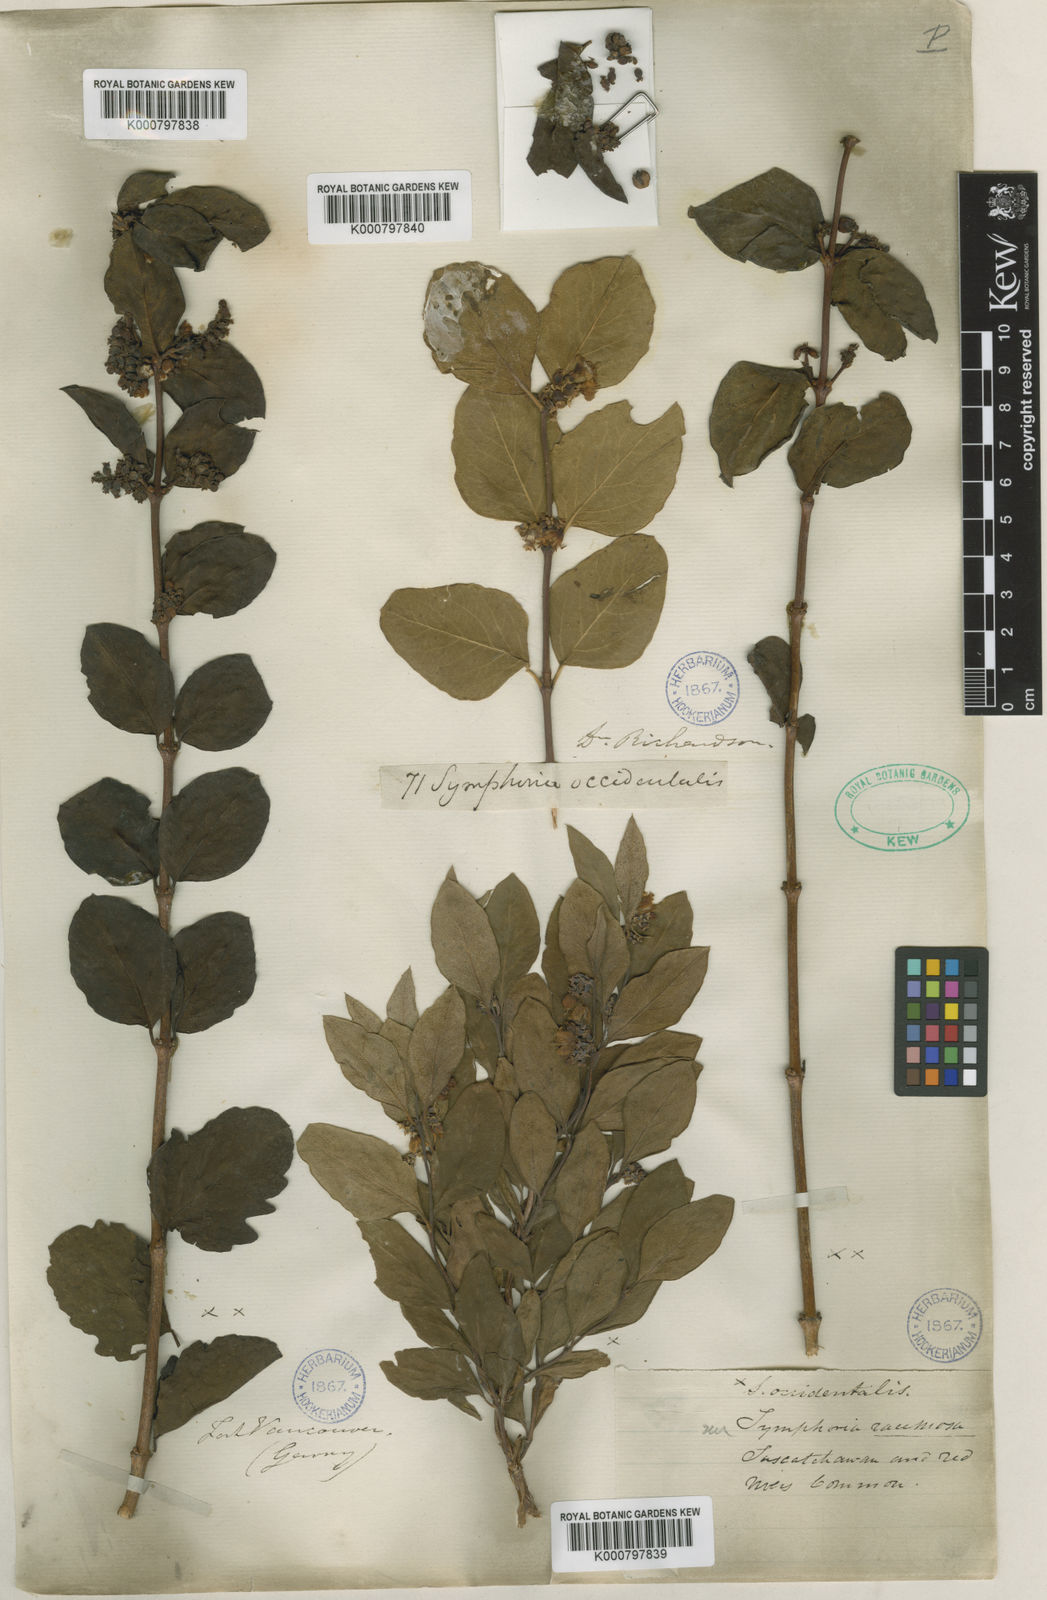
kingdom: Plantae
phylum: Tracheophyta
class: Magnoliopsida
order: Dipsacales
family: Caprifoliaceae
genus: Symphoricarpos
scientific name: Symphoricarpos albus
